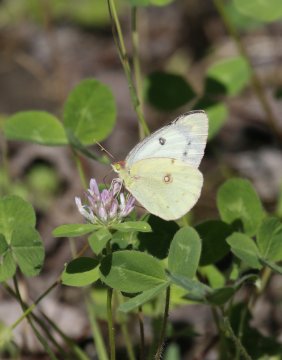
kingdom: Animalia
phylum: Arthropoda
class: Insecta
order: Lepidoptera
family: Pieridae
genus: Colias
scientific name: Colias philodice
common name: Clouded Sulphur
